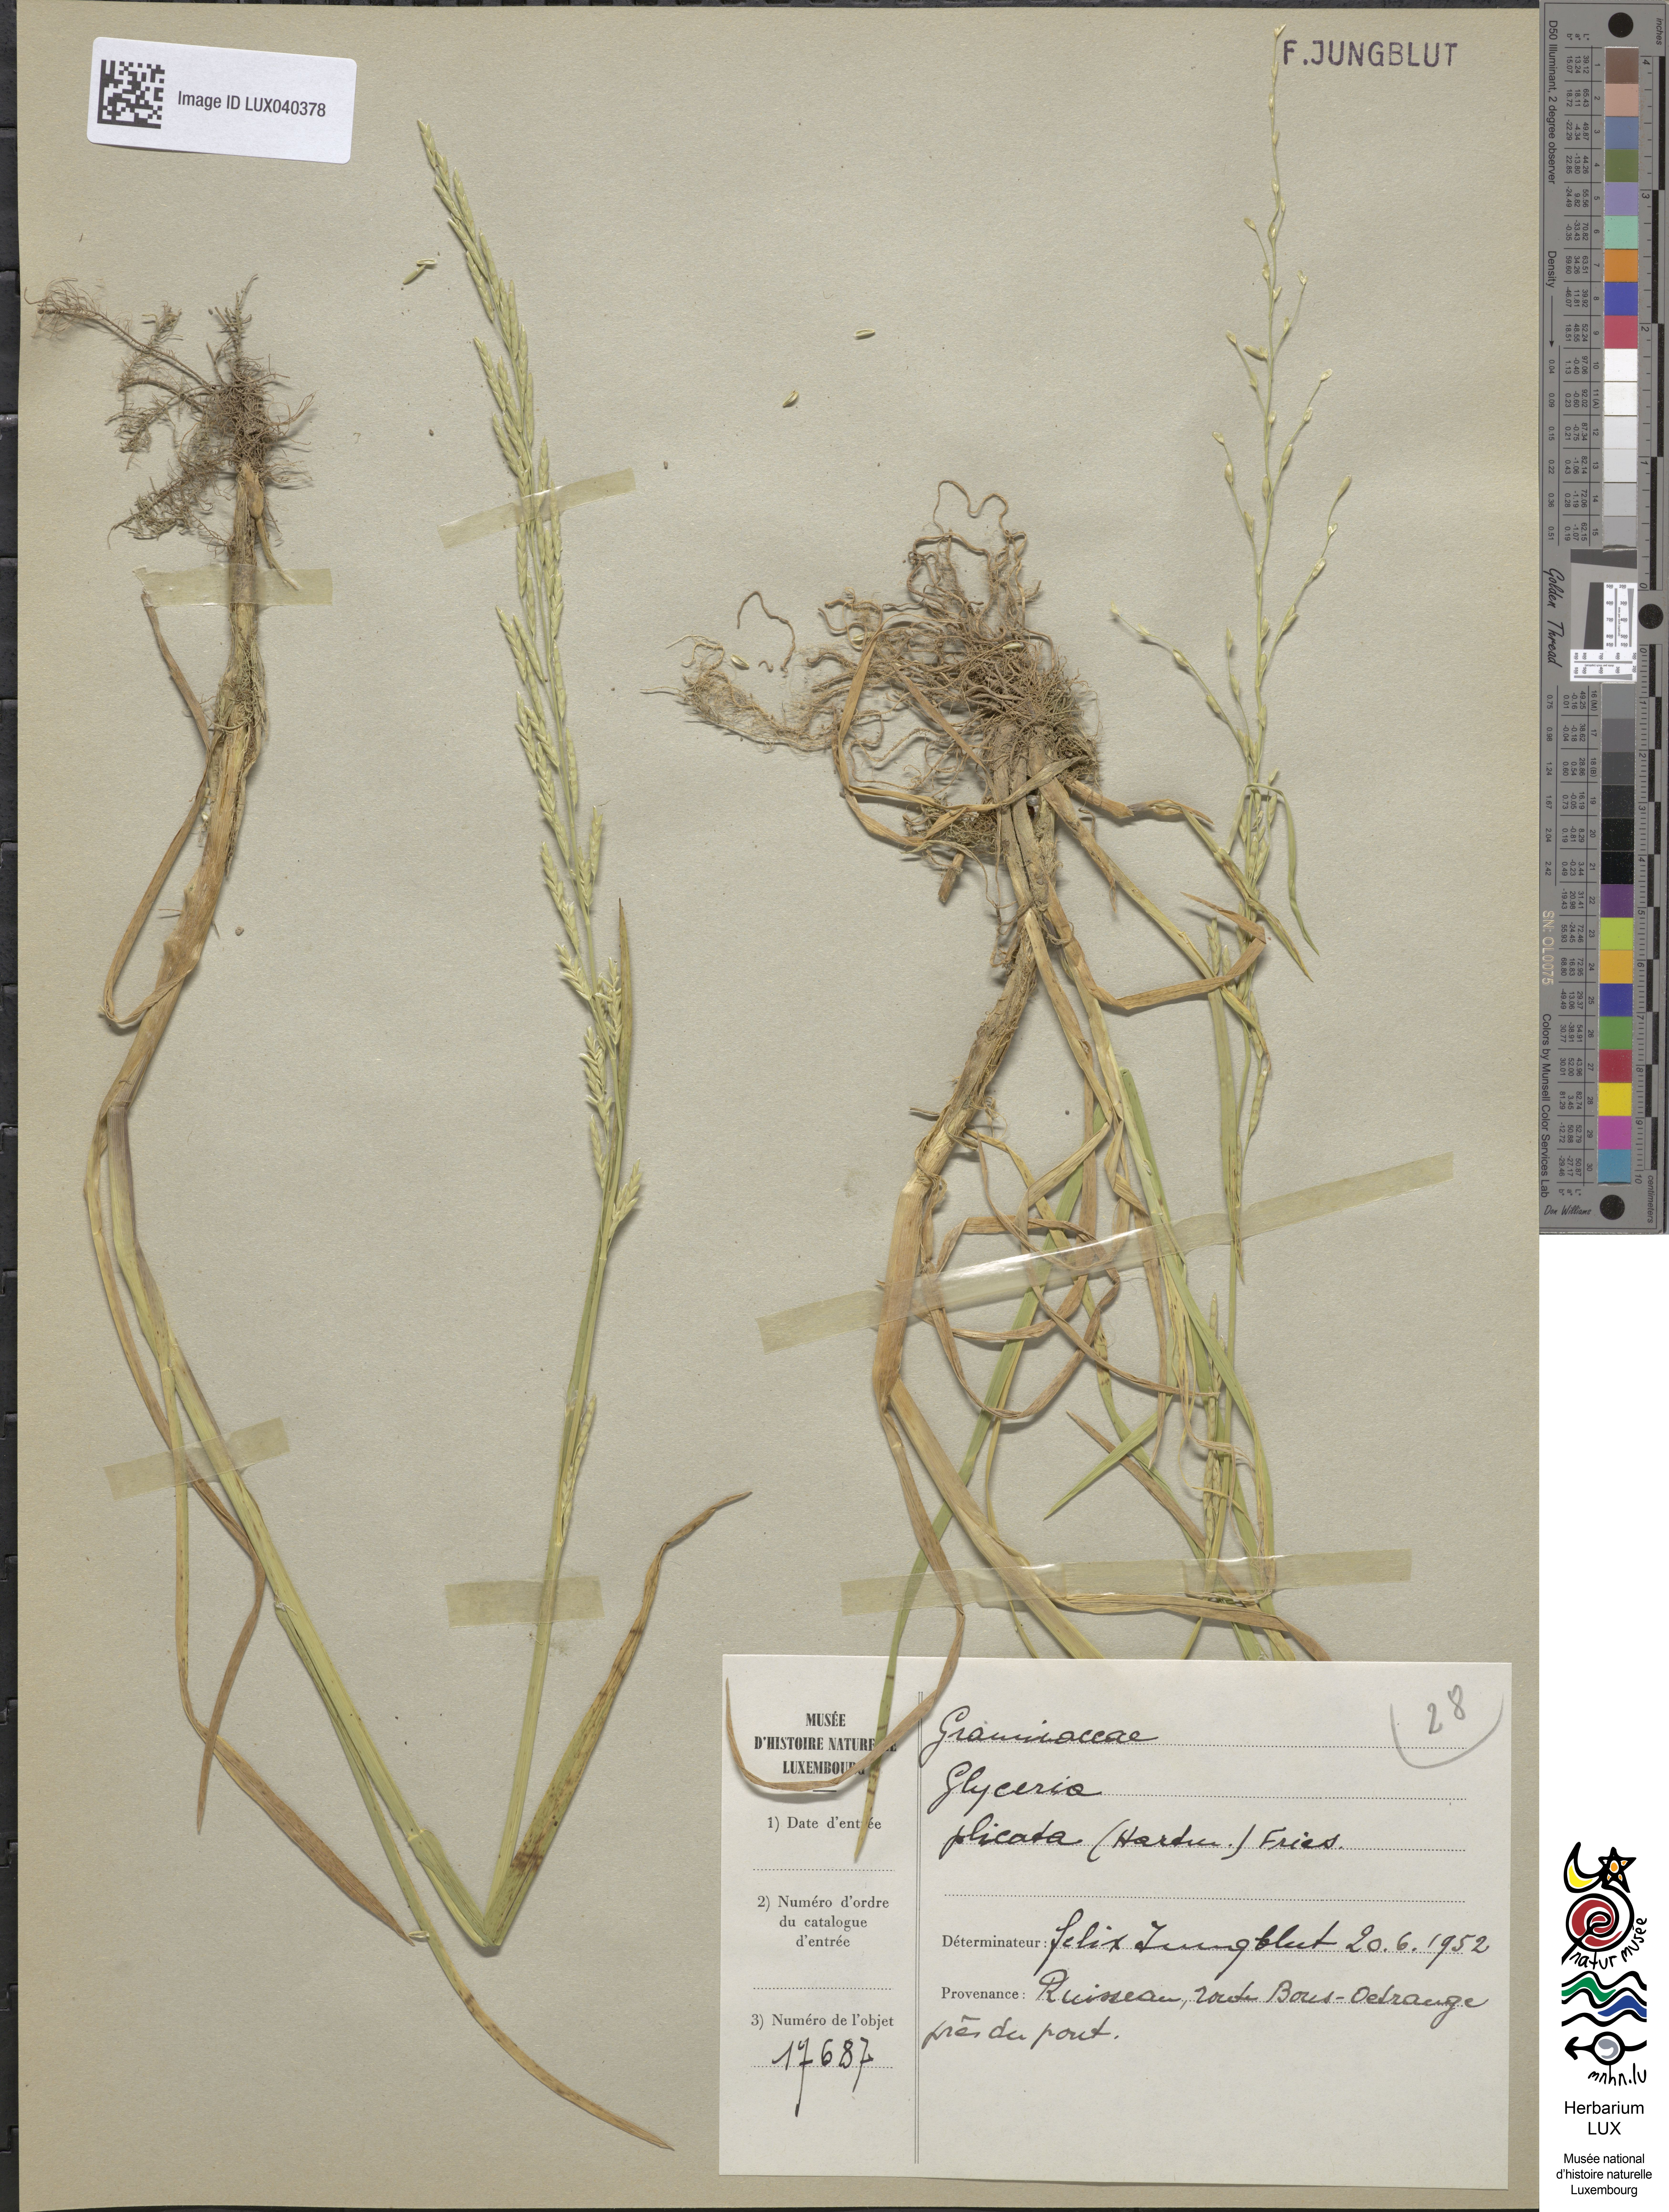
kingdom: Plantae
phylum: Tracheophyta
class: Liliopsida
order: Poales
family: Poaceae
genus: Glyceria
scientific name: Glyceria notata
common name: Plicate sweet-grass
